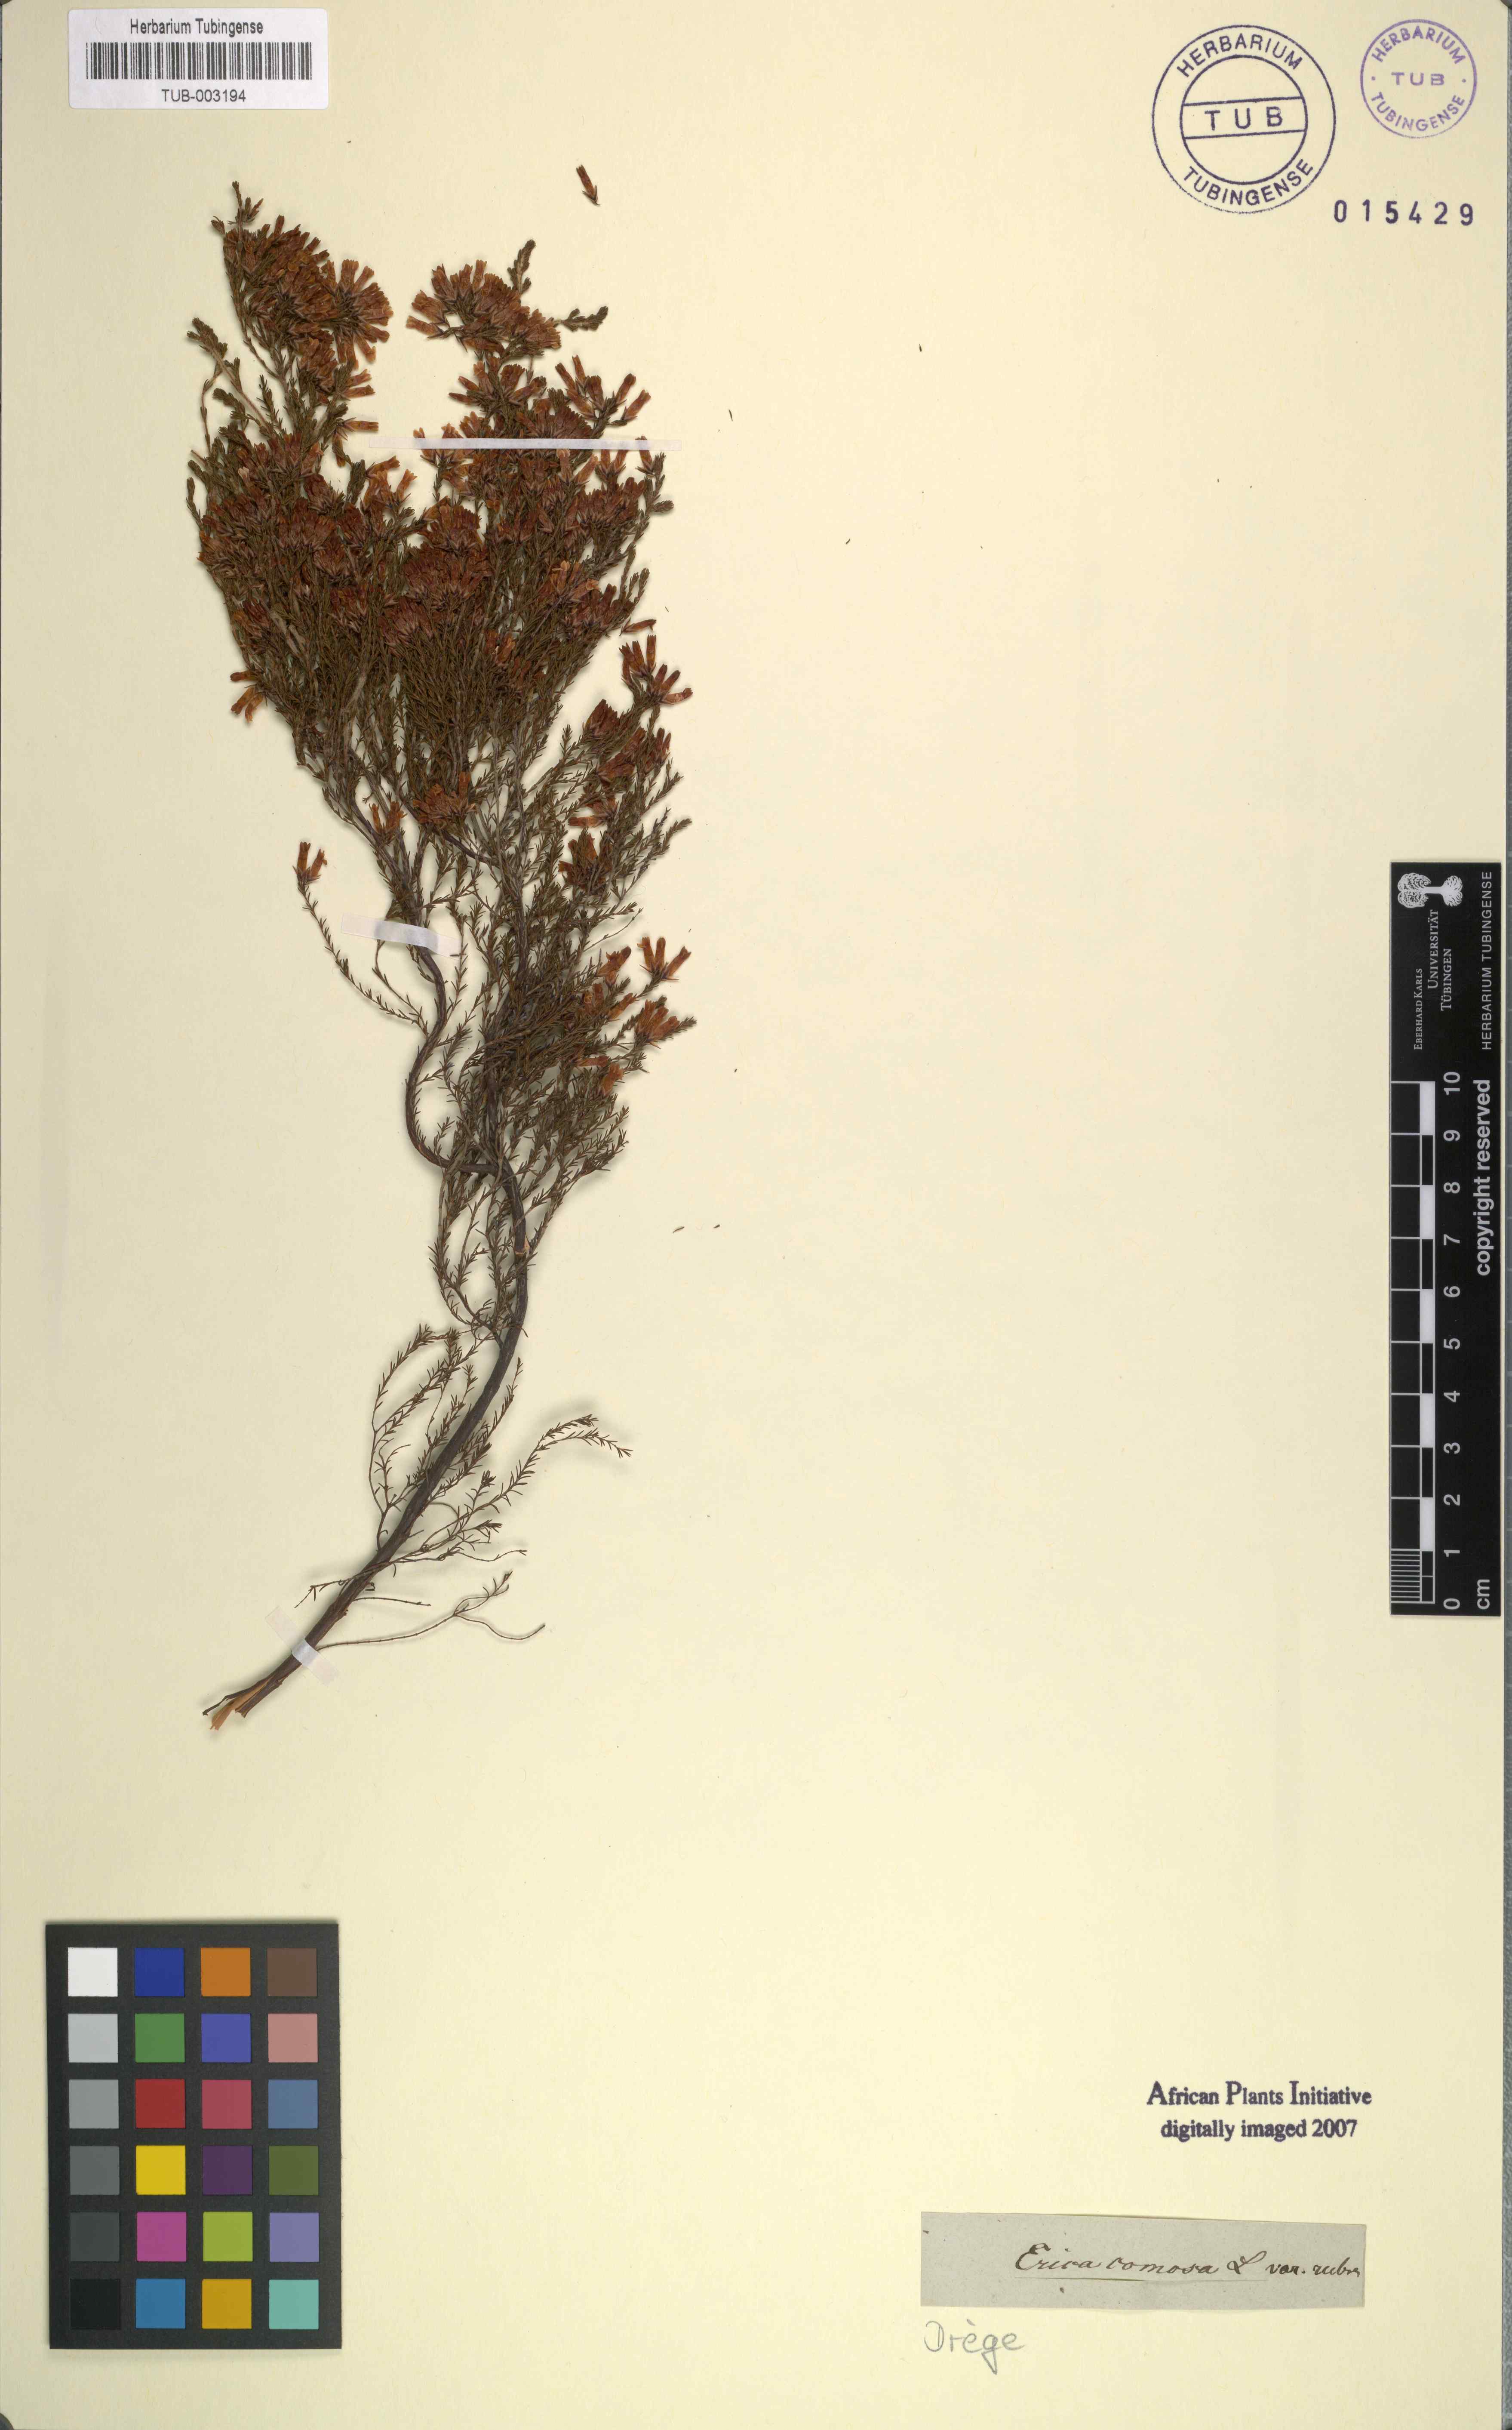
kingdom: Plantae
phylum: Tracheophyta
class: Magnoliopsida
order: Ericales
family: Ericaceae
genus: Erica
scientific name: Erica diaphana
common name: Heath
